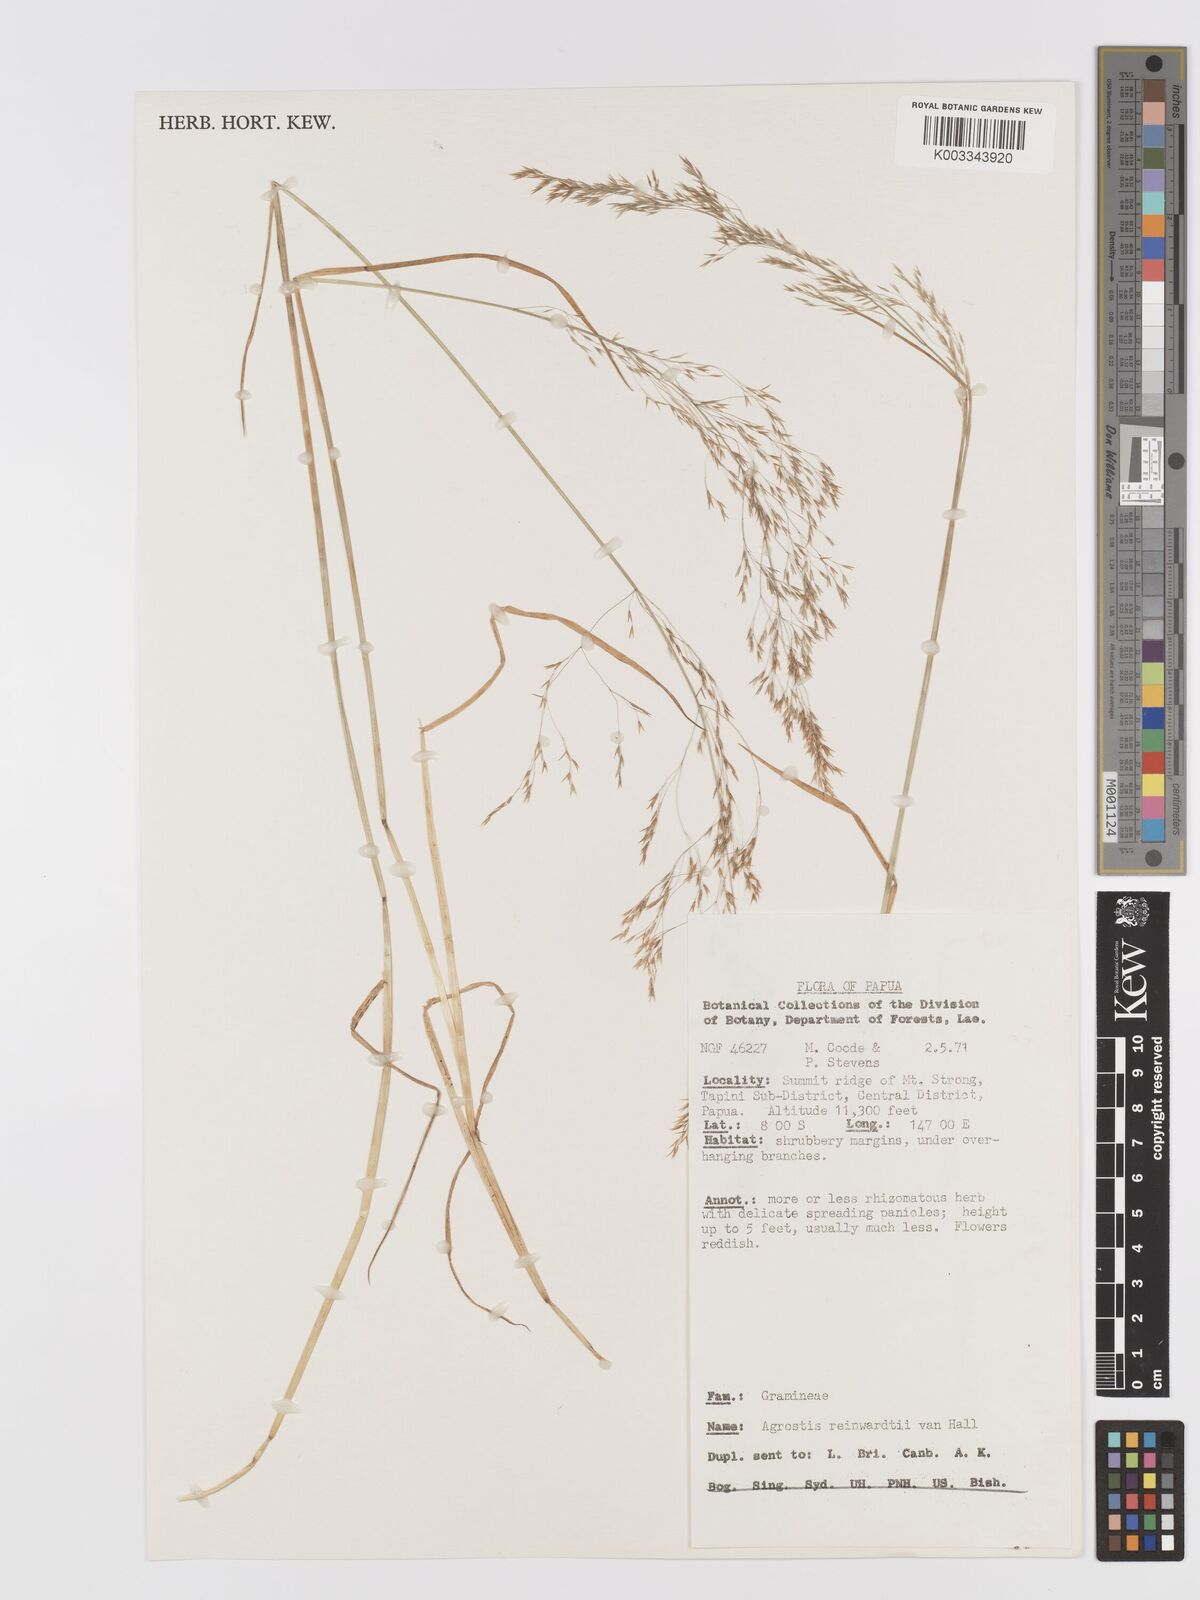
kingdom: Plantae
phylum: Tracheophyta
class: Liliopsida
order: Poales
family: Poaceae
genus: Agrostis
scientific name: Agrostis infirma
